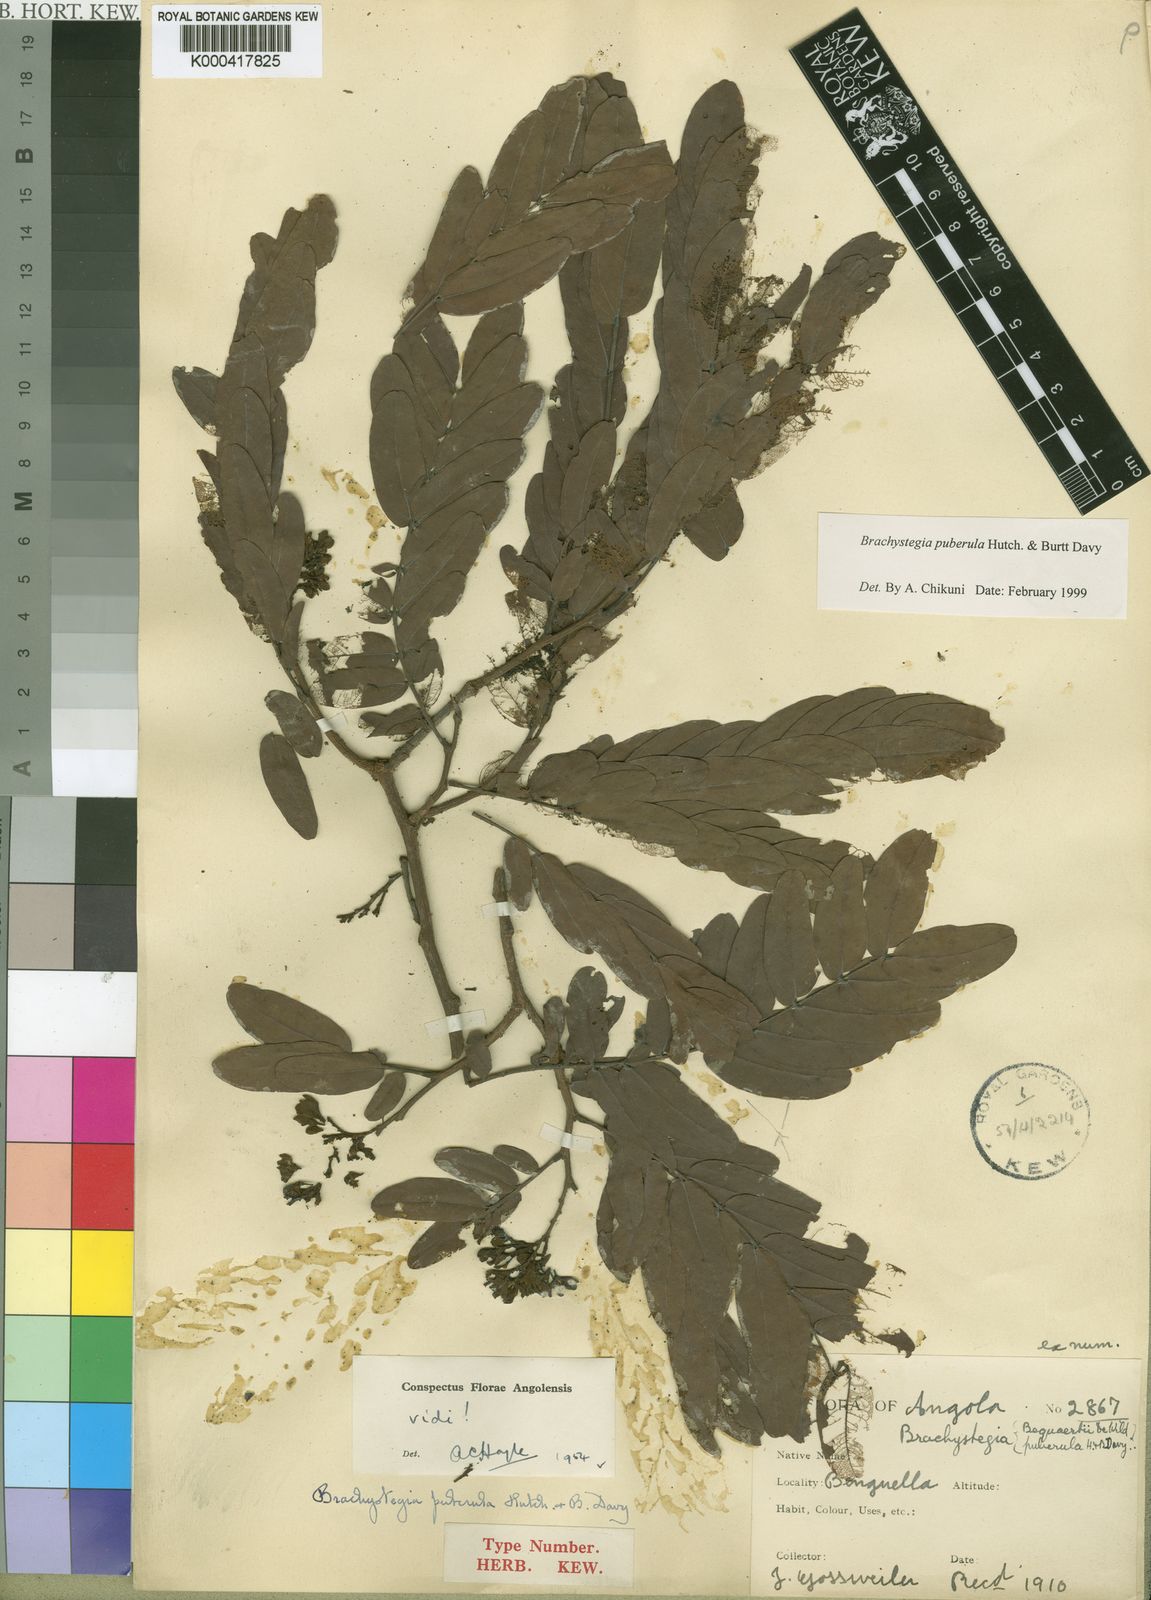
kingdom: Plantae
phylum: Tracheophyta
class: Magnoliopsida
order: Fabales
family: Fabaceae
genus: Brachystegia
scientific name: Brachystegia puberula
